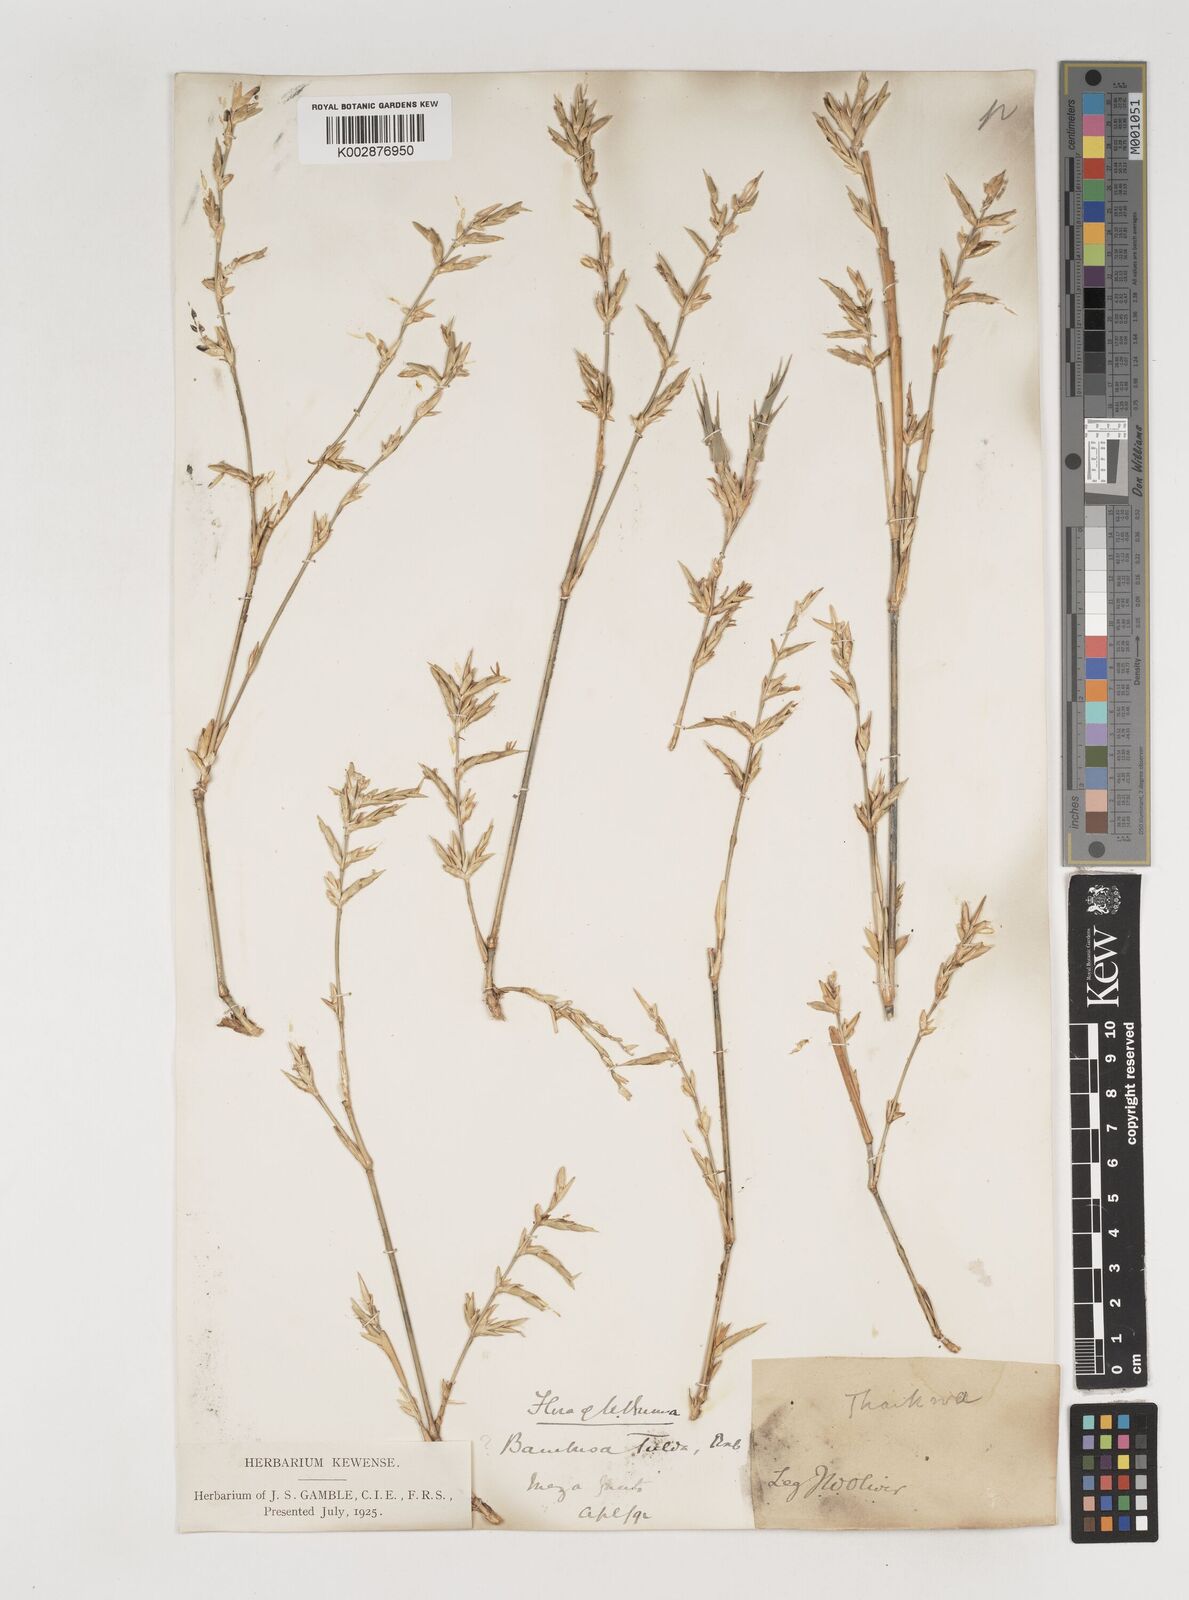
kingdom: Plantae
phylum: Tracheophyta
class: Liliopsida
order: Poales
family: Poaceae
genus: Bambusa
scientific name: Bambusa tulda
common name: Bengal bamboo
